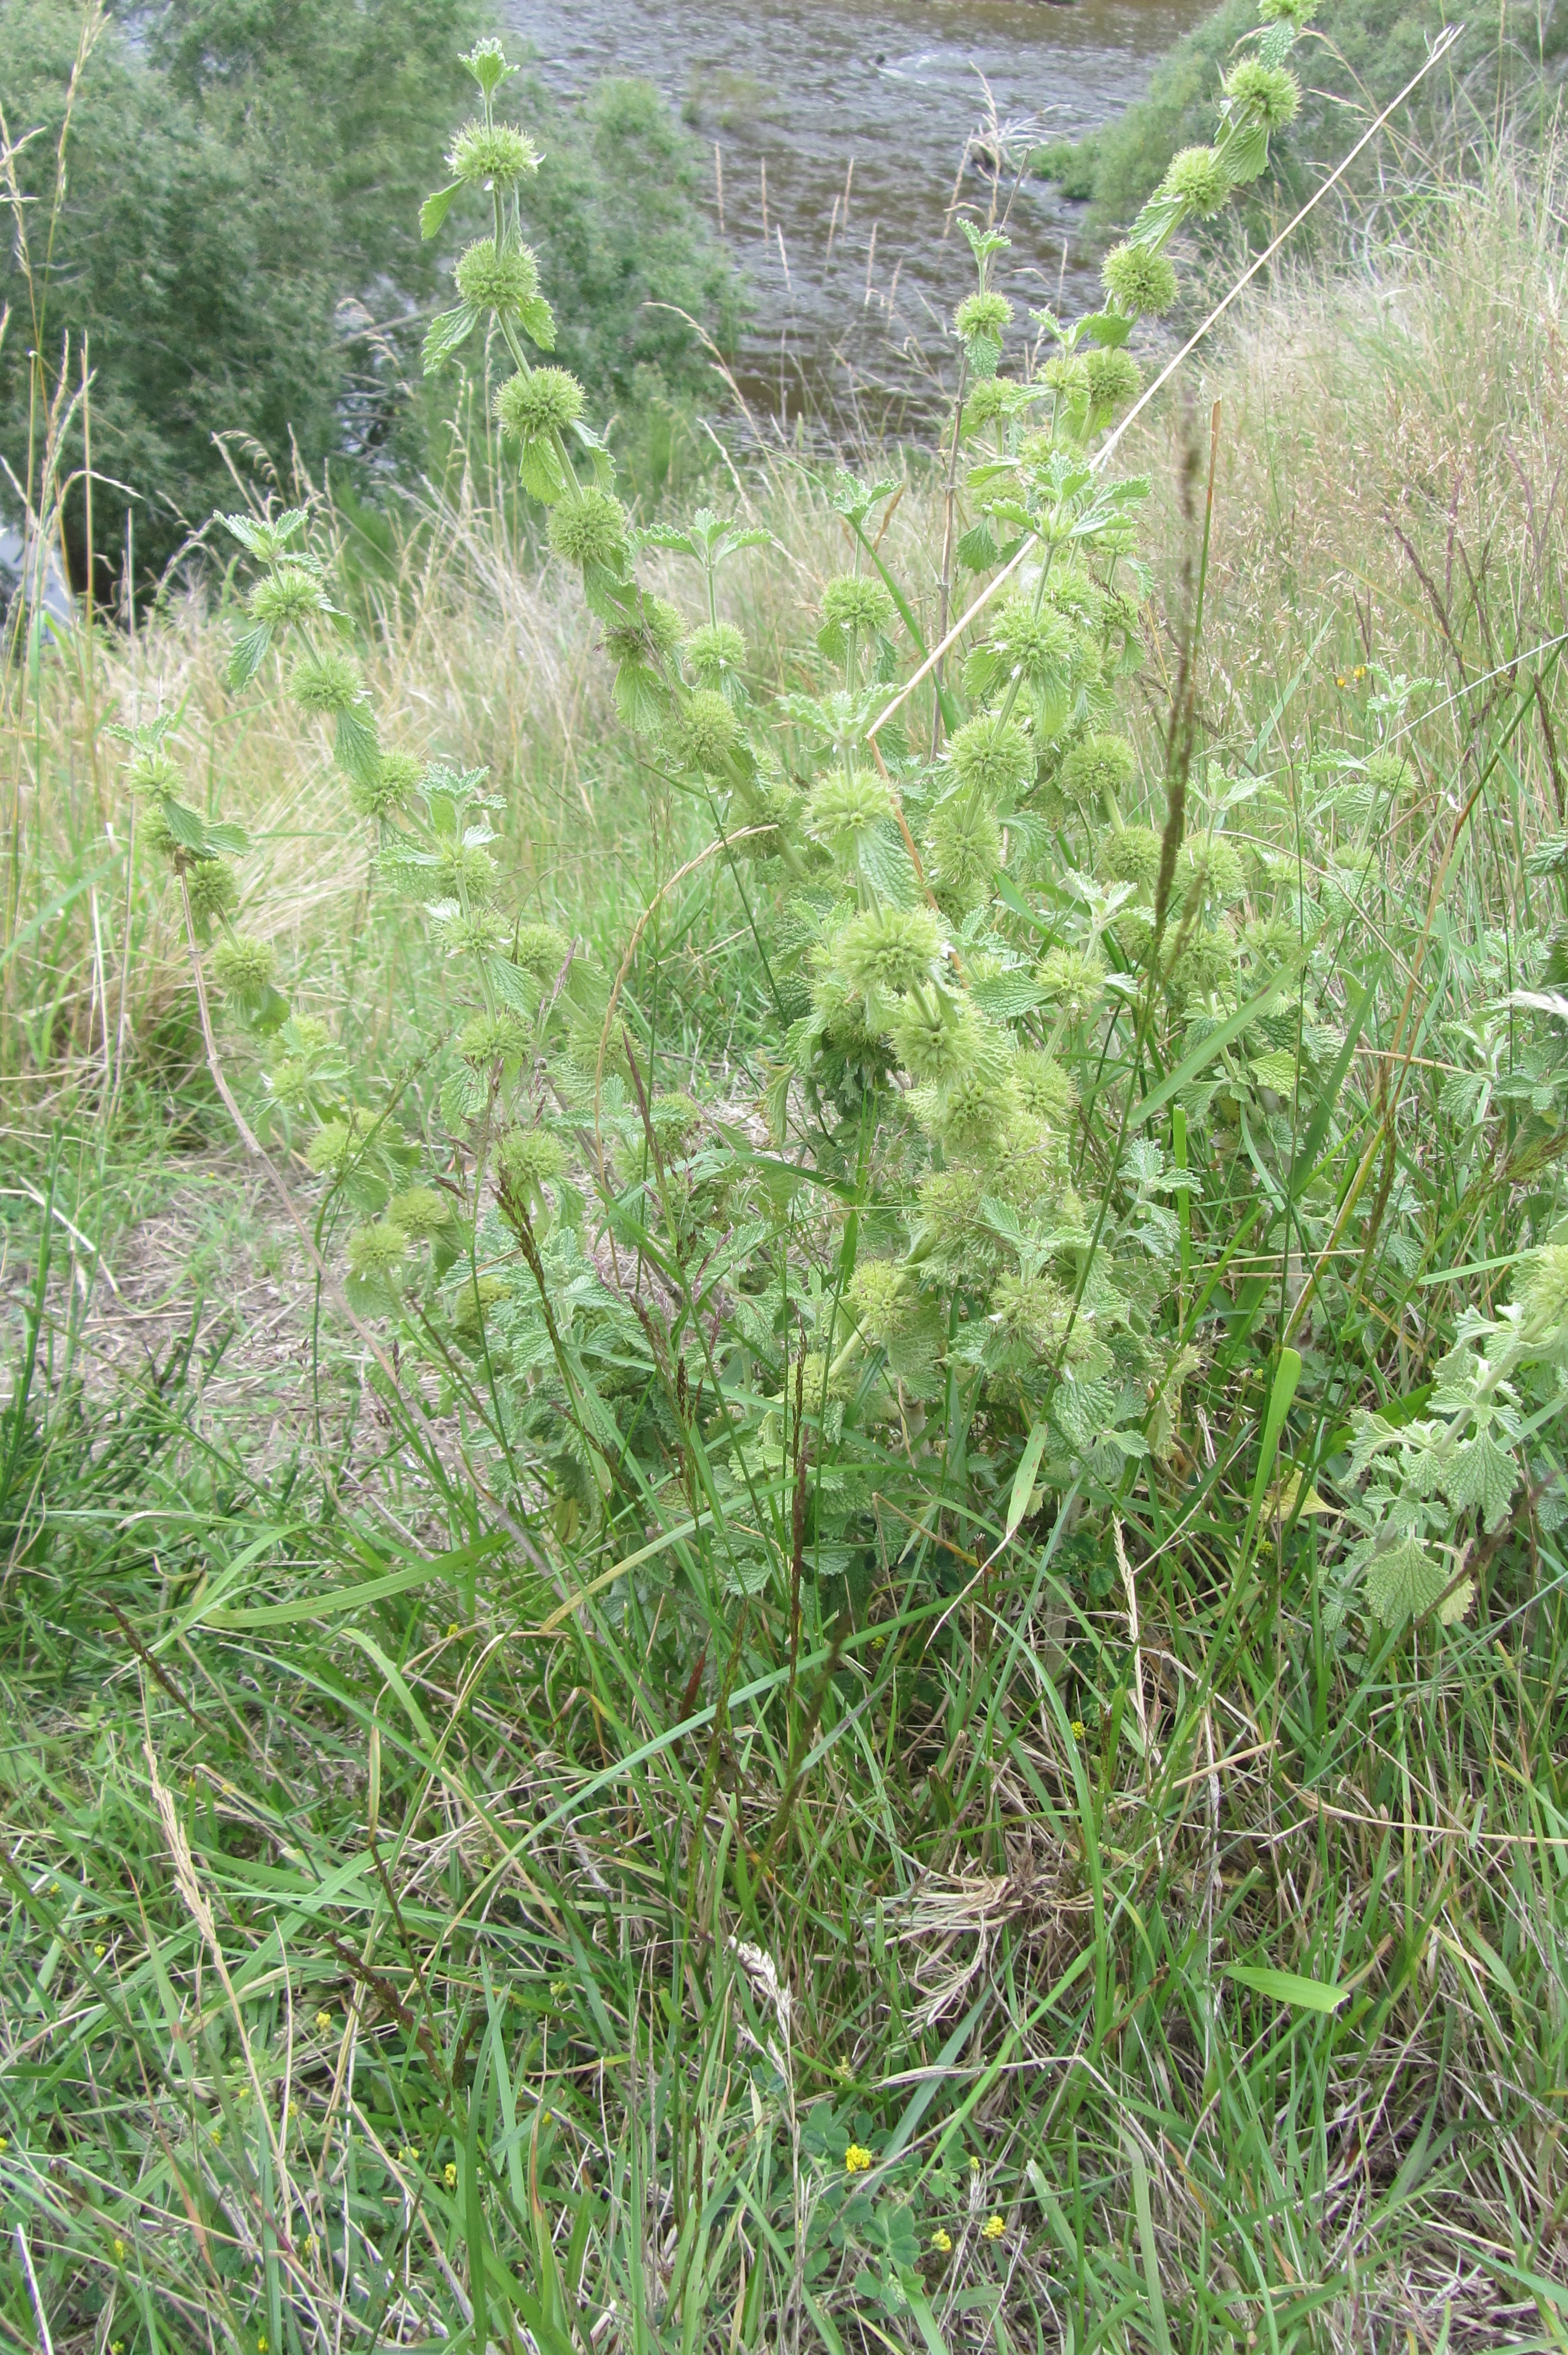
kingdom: Plantae
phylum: Tracheophyta
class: Magnoliopsida
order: Lamiales
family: Lamiaceae
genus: Marrubium
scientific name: Marrubium vulgare
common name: Horehound
